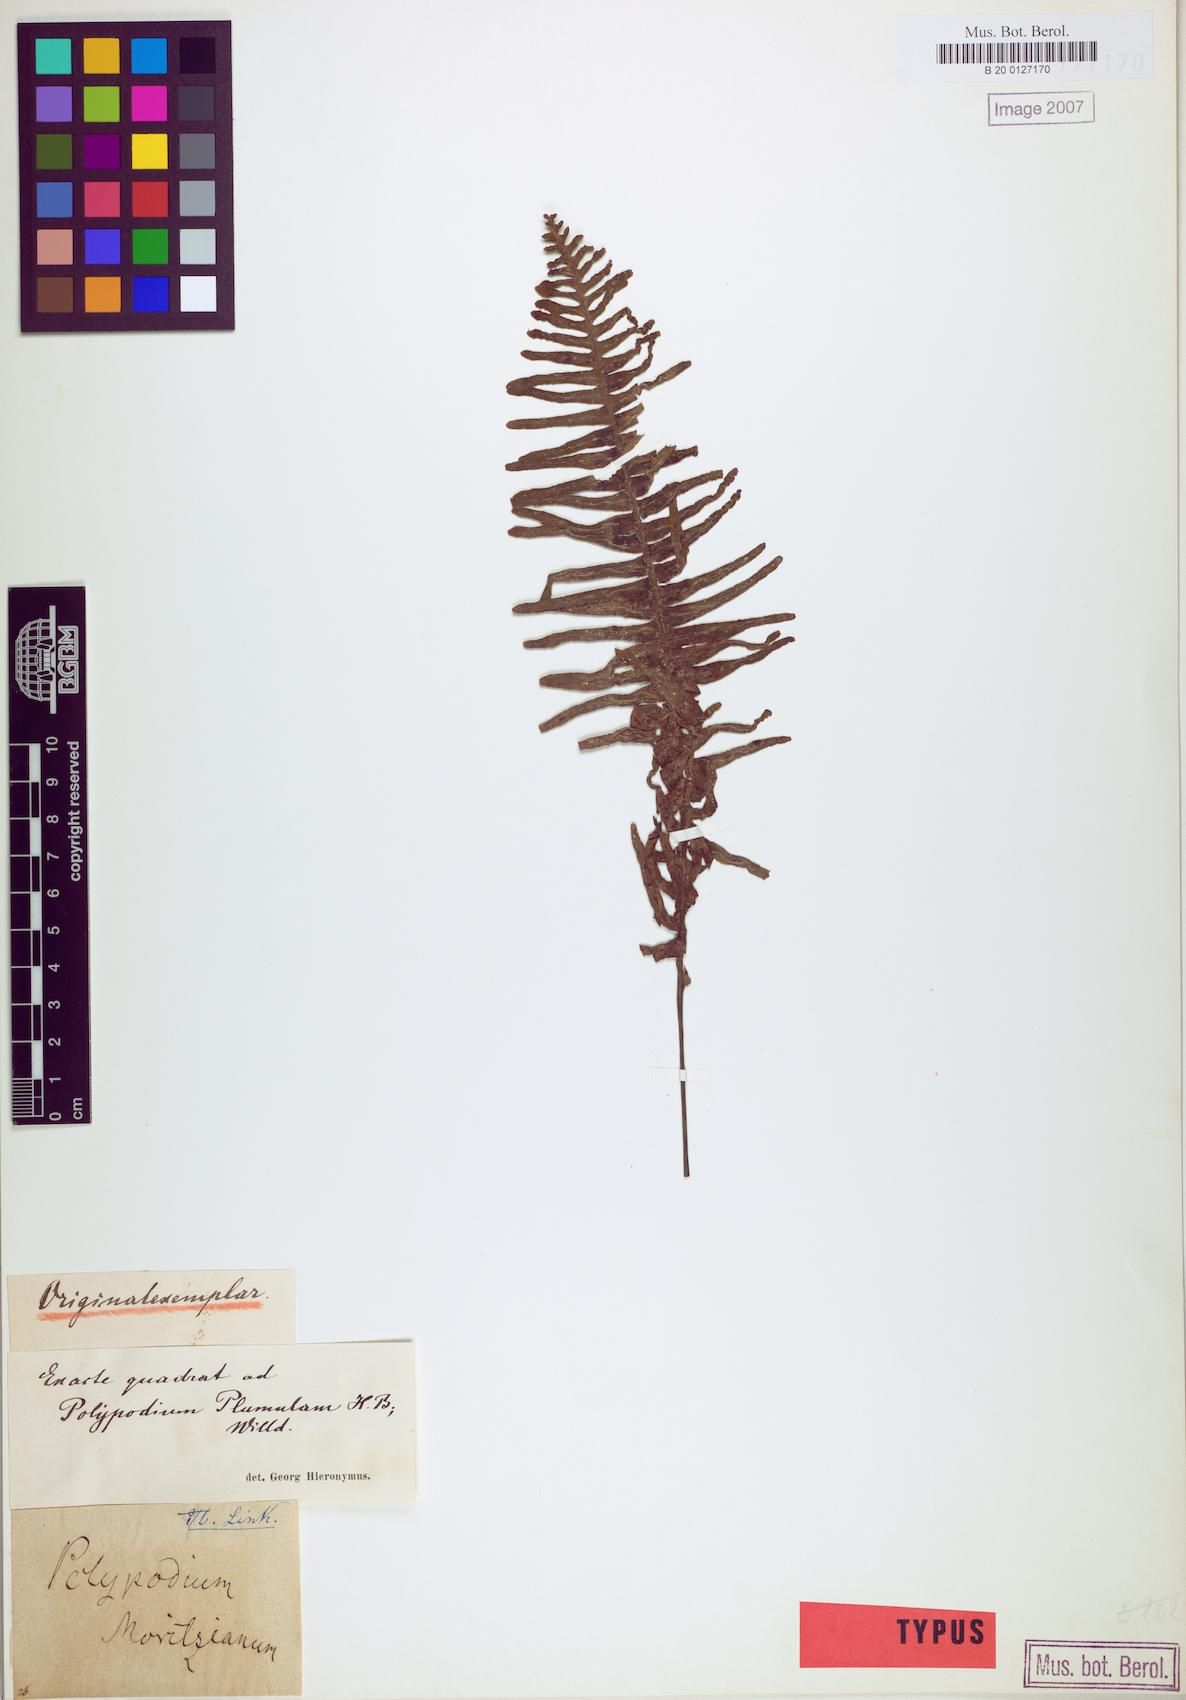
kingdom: Plantae
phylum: Tracheophyta
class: Polypodiopsida
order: Polypodiales
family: Polypodiaceae
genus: Pecluma
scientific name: Pecluma plumula
